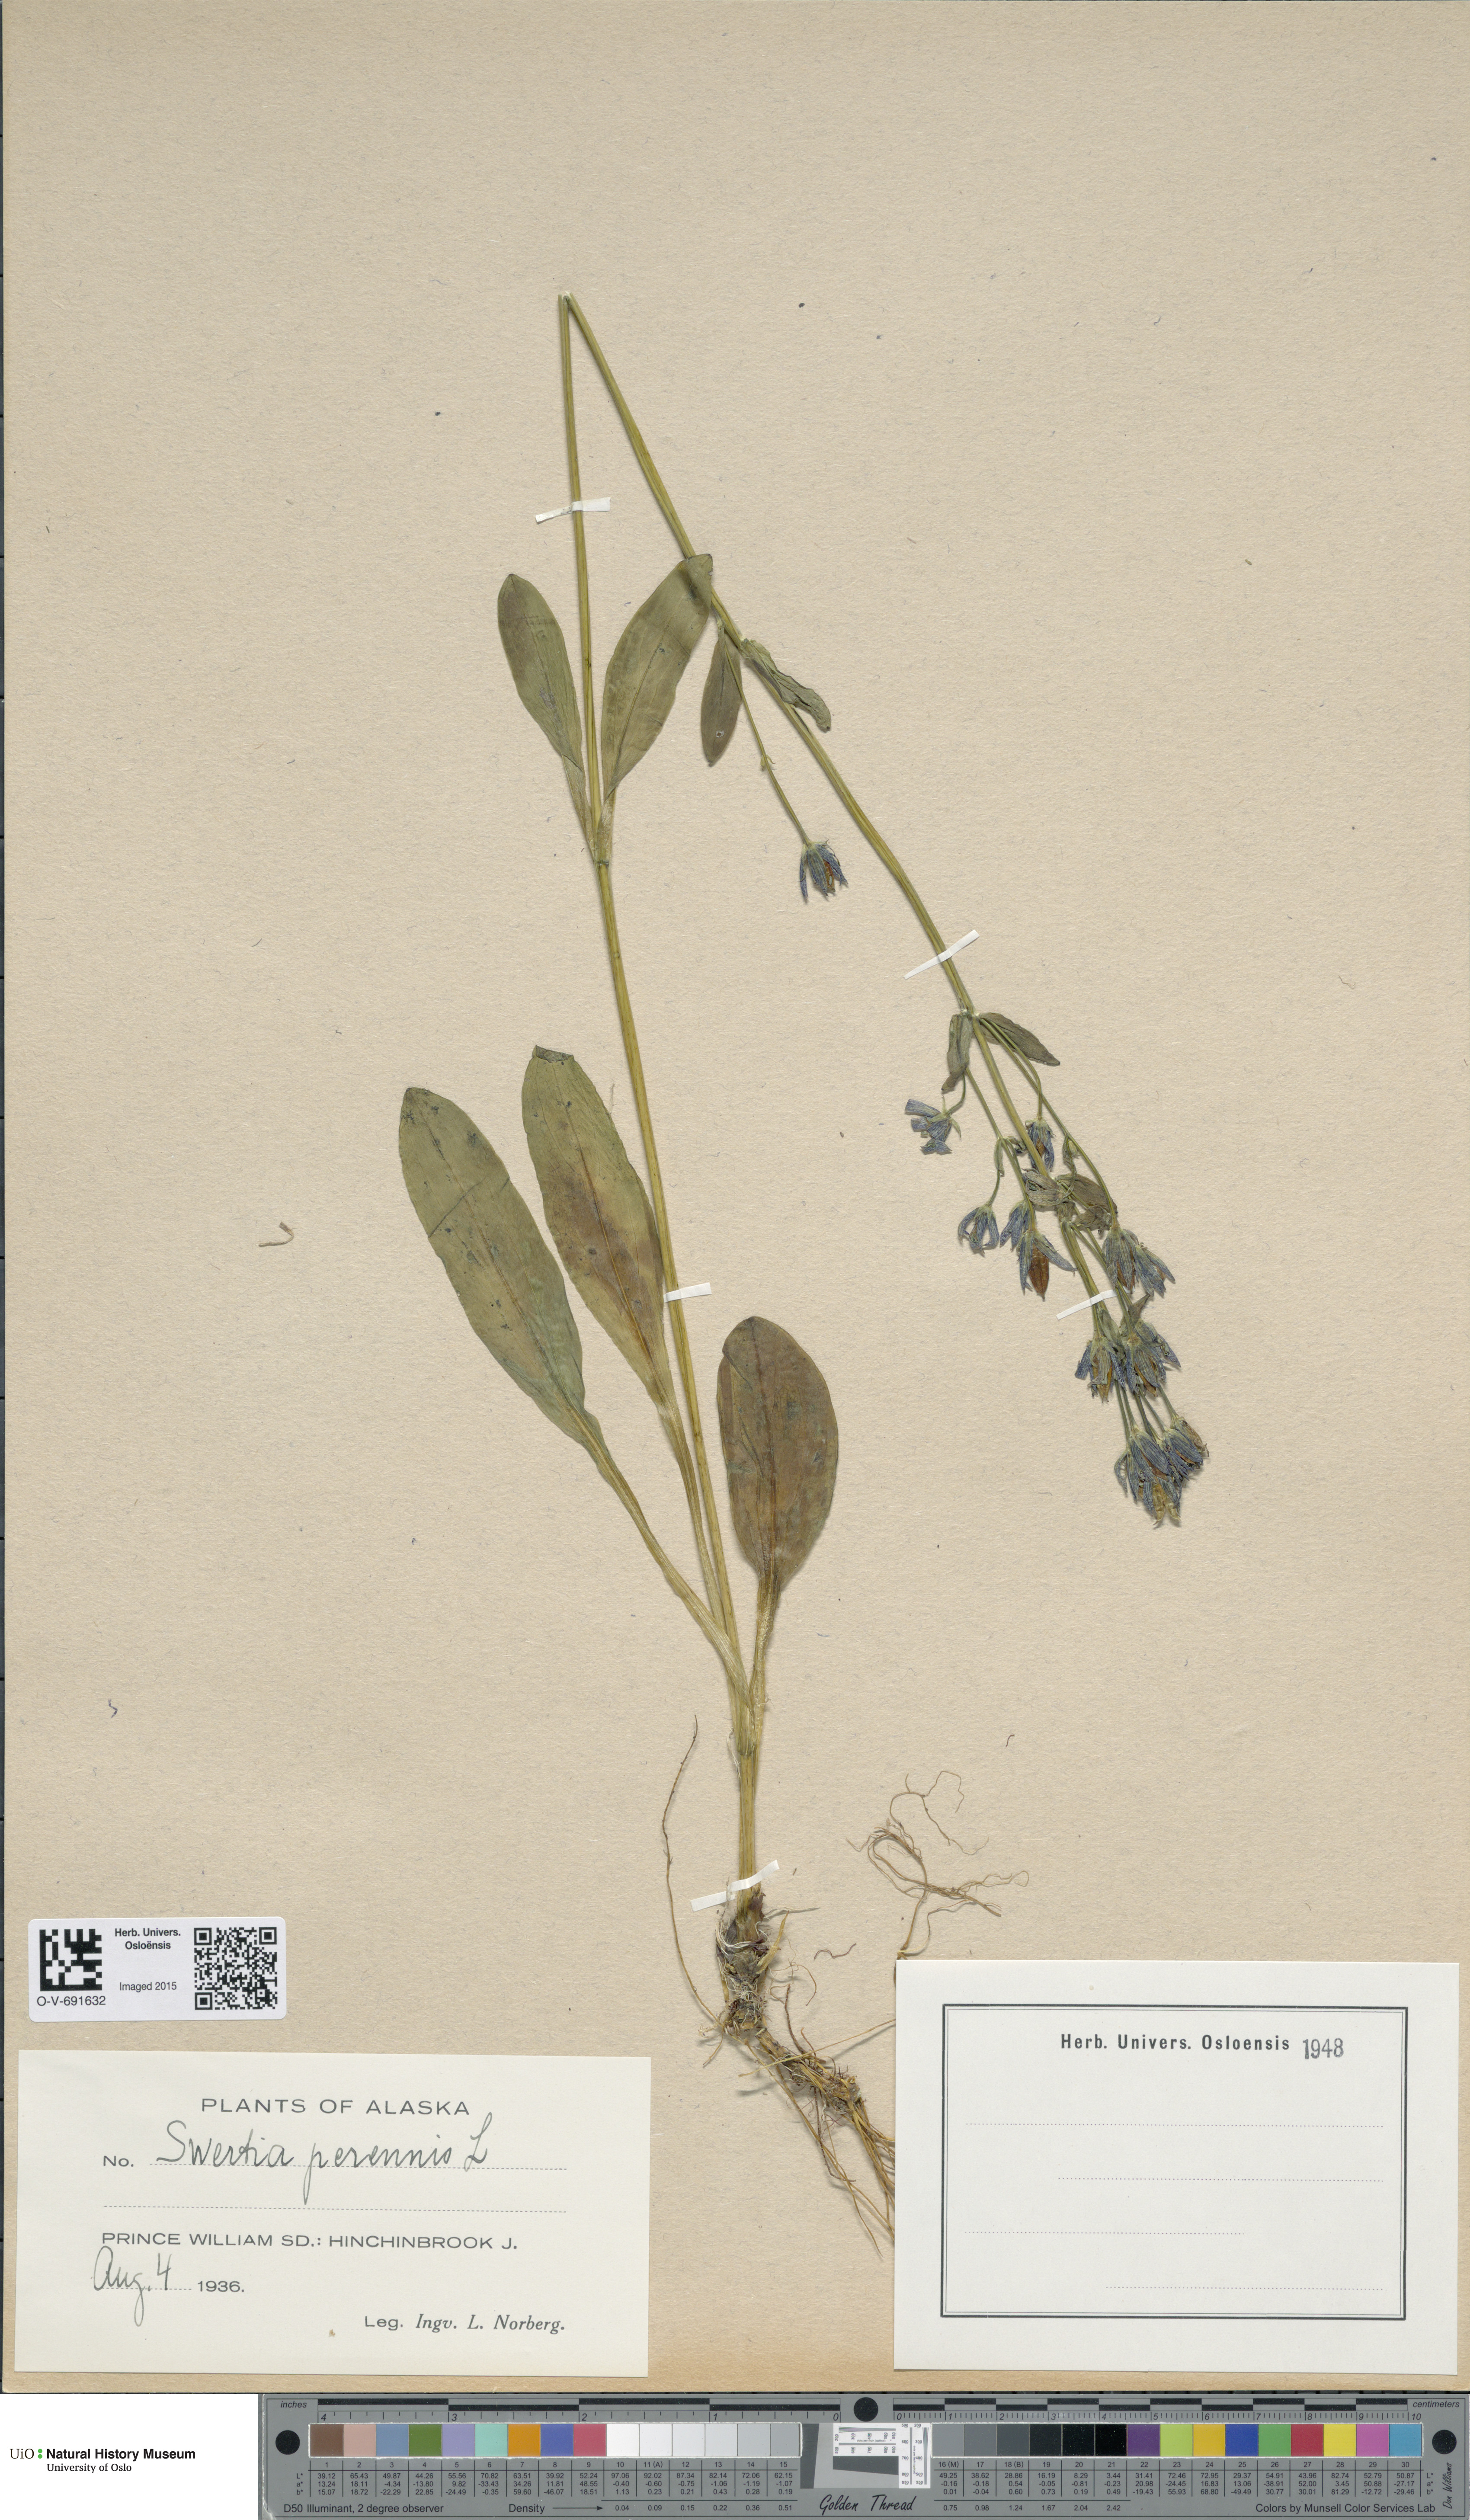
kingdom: Plantae
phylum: Tracheophyta
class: Magnoliopsida
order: Gentianales
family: Gentianaceae
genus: Swertia
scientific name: Swertia perennis
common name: Alpine bog swertia
